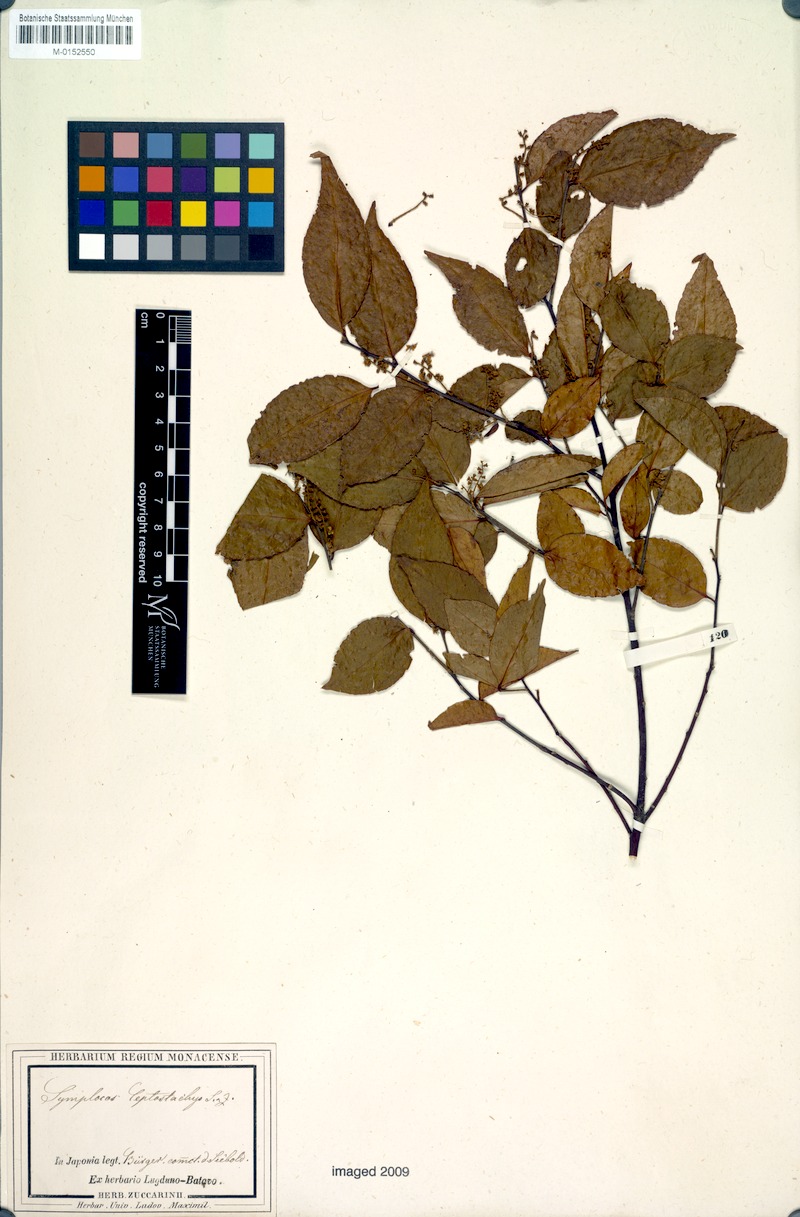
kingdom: Plantae
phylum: Tracheophyta
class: Magnoliopsida
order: Ericales
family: Symplocaceae
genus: Symplocos
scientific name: Symplocos lancifolia
